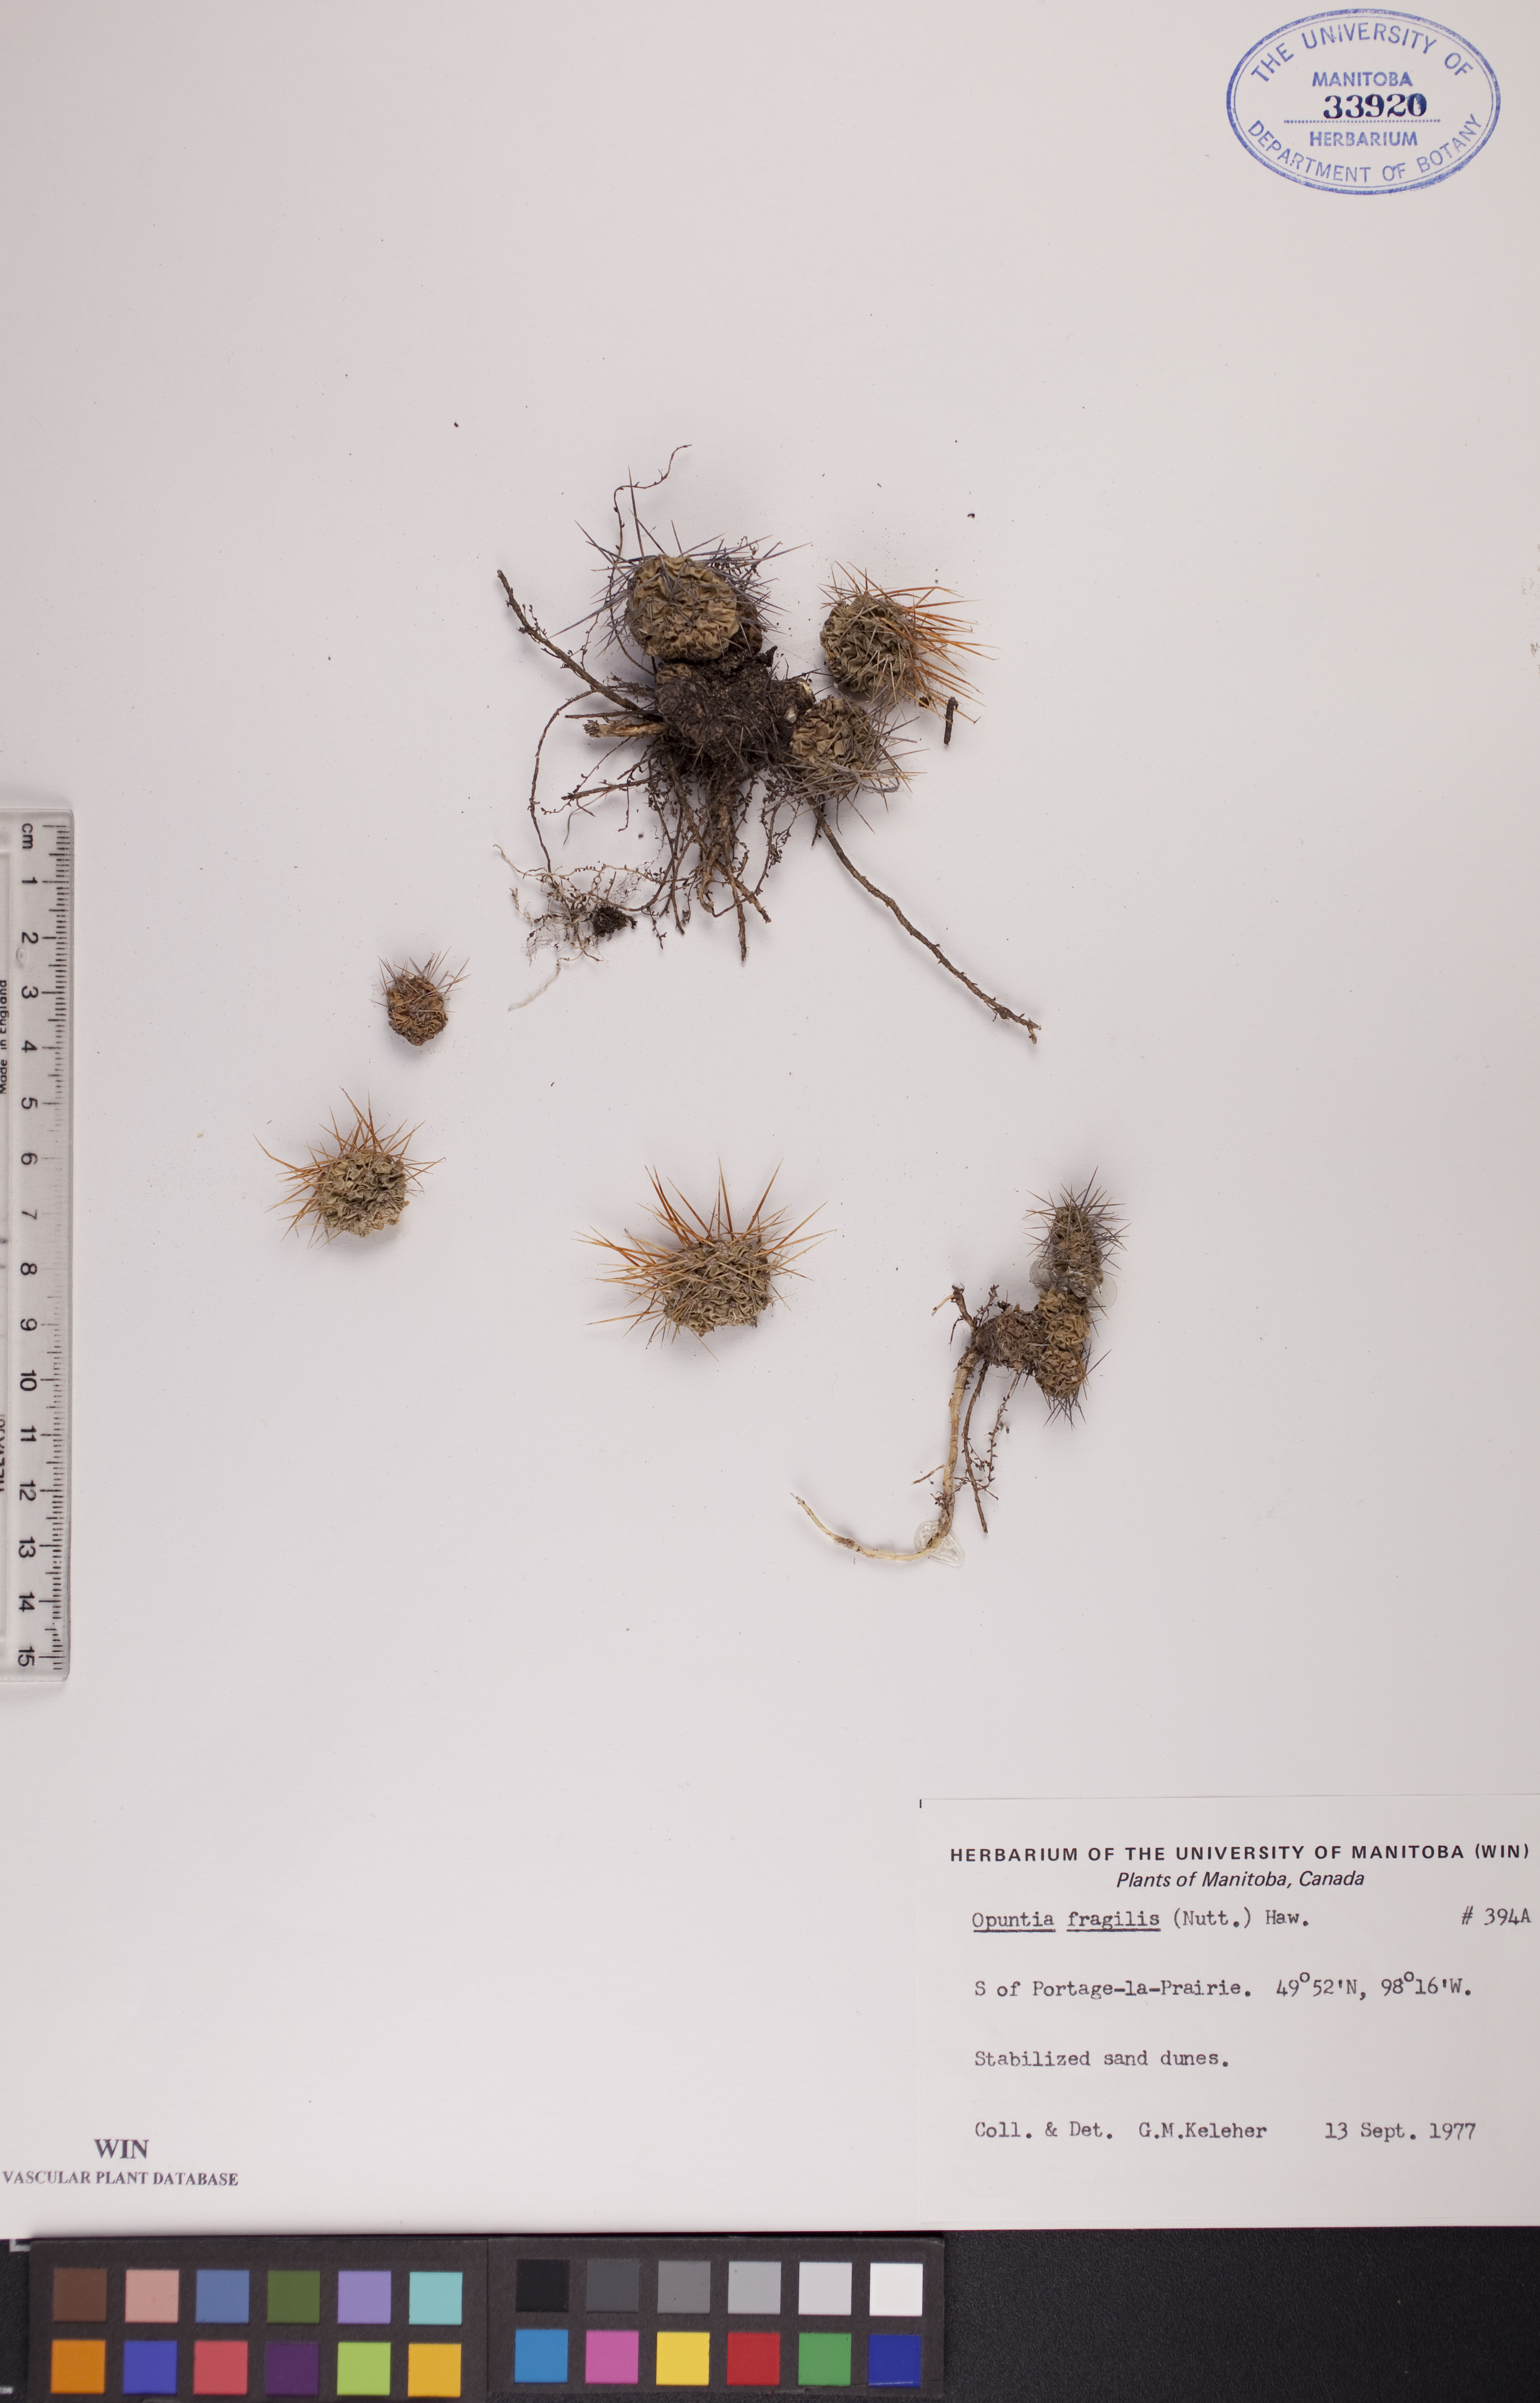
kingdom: Plantae
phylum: Tracheophyta
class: Magnoliopsida
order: Caryophyllales
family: Cactaceae
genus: Opuntia
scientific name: Opuntia fragilis
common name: Brittle cactus
